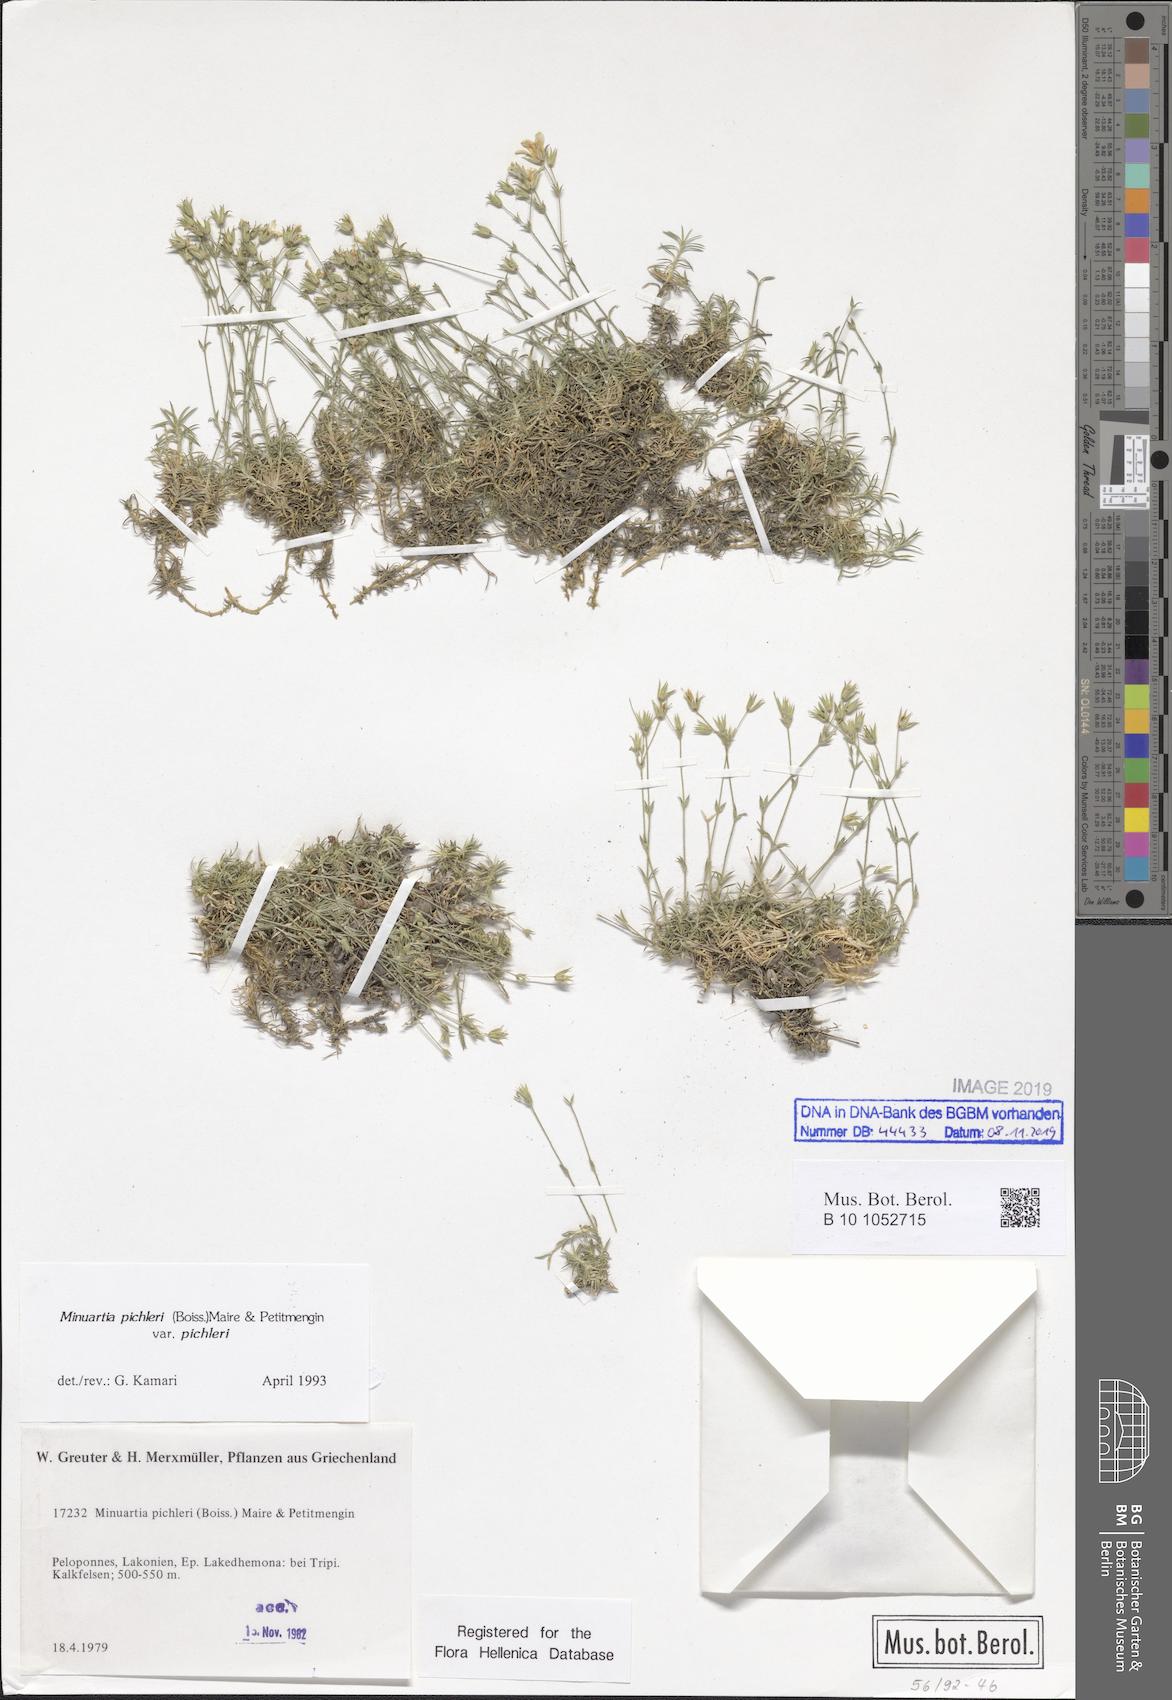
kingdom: Plantae
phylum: Tracheophyta
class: Magnoliopsida
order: Caryophyllales
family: Caryophyllaceae
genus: Sabulina
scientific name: Sabulina pichleri
